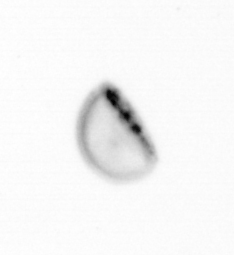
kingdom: Chromista
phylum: Ochrophyta
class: Bacillariophyceae
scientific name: Bacillariophyceae
